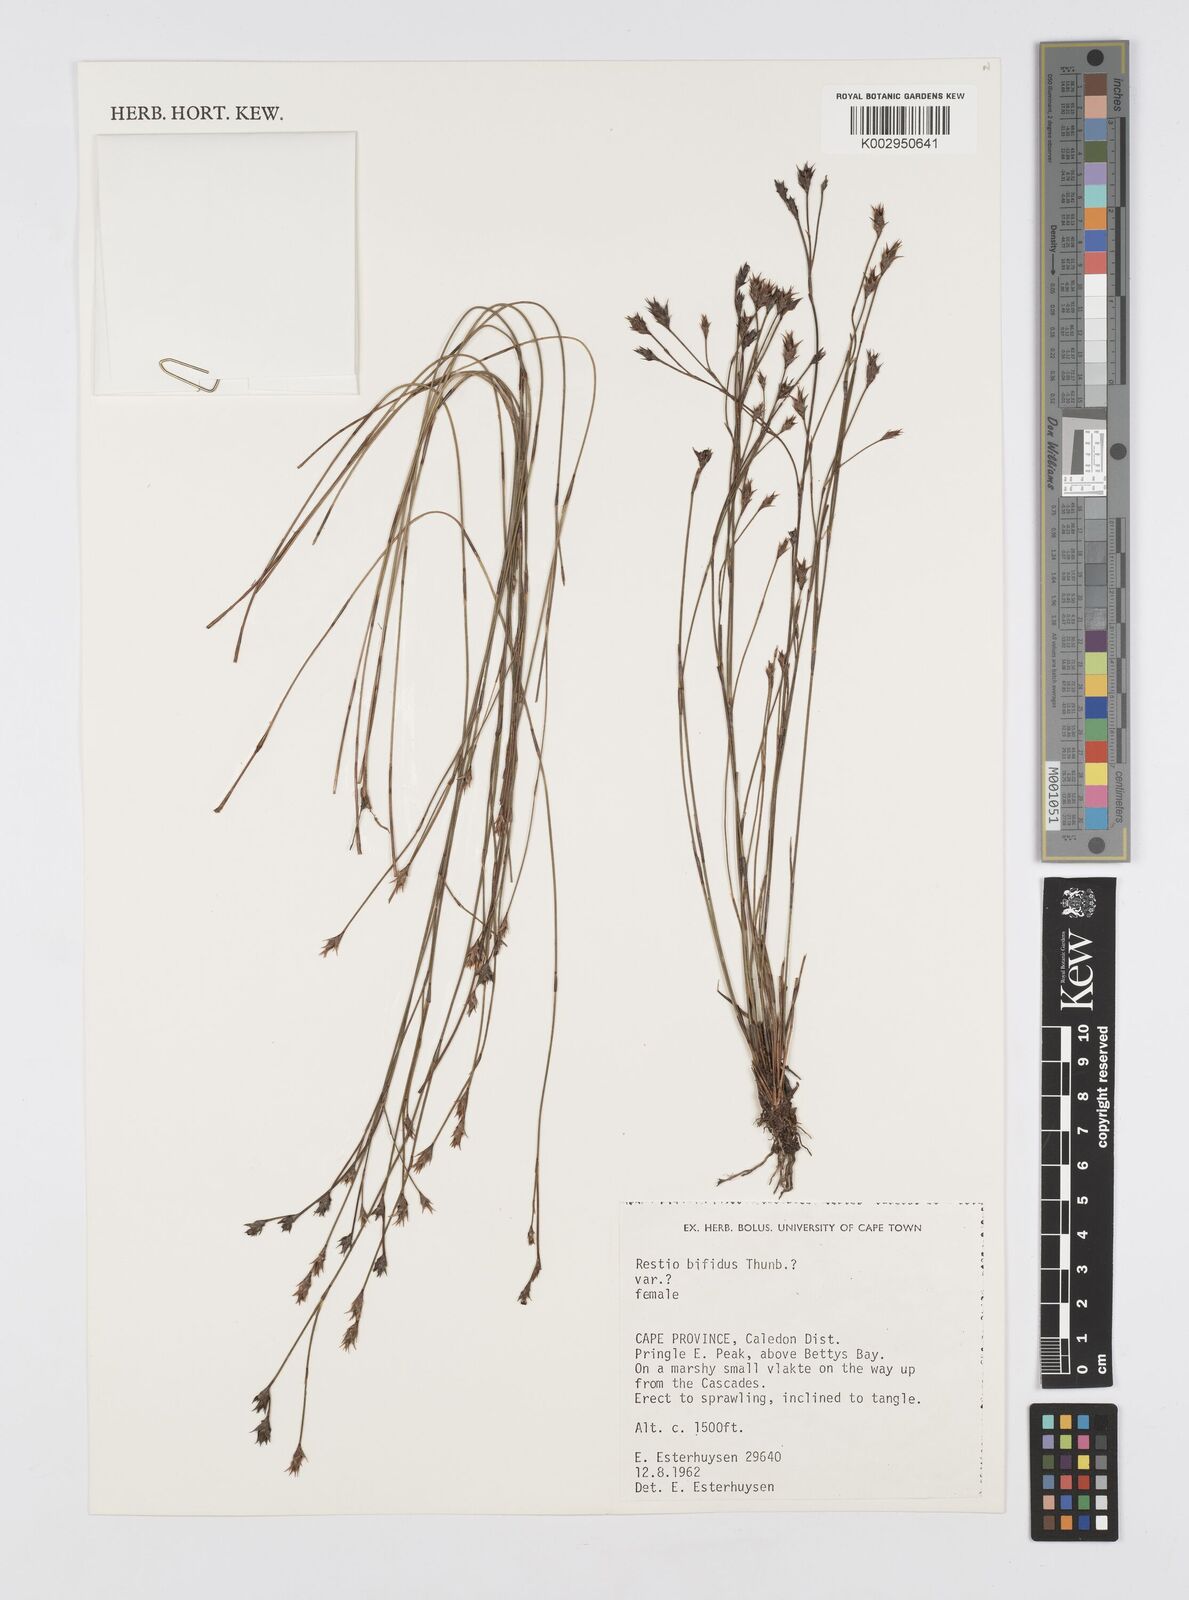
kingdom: Plantae
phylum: Tracheophyta
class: Liliopsida
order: Poales
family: Restionaceae
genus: Restio
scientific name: Restio bifidus
